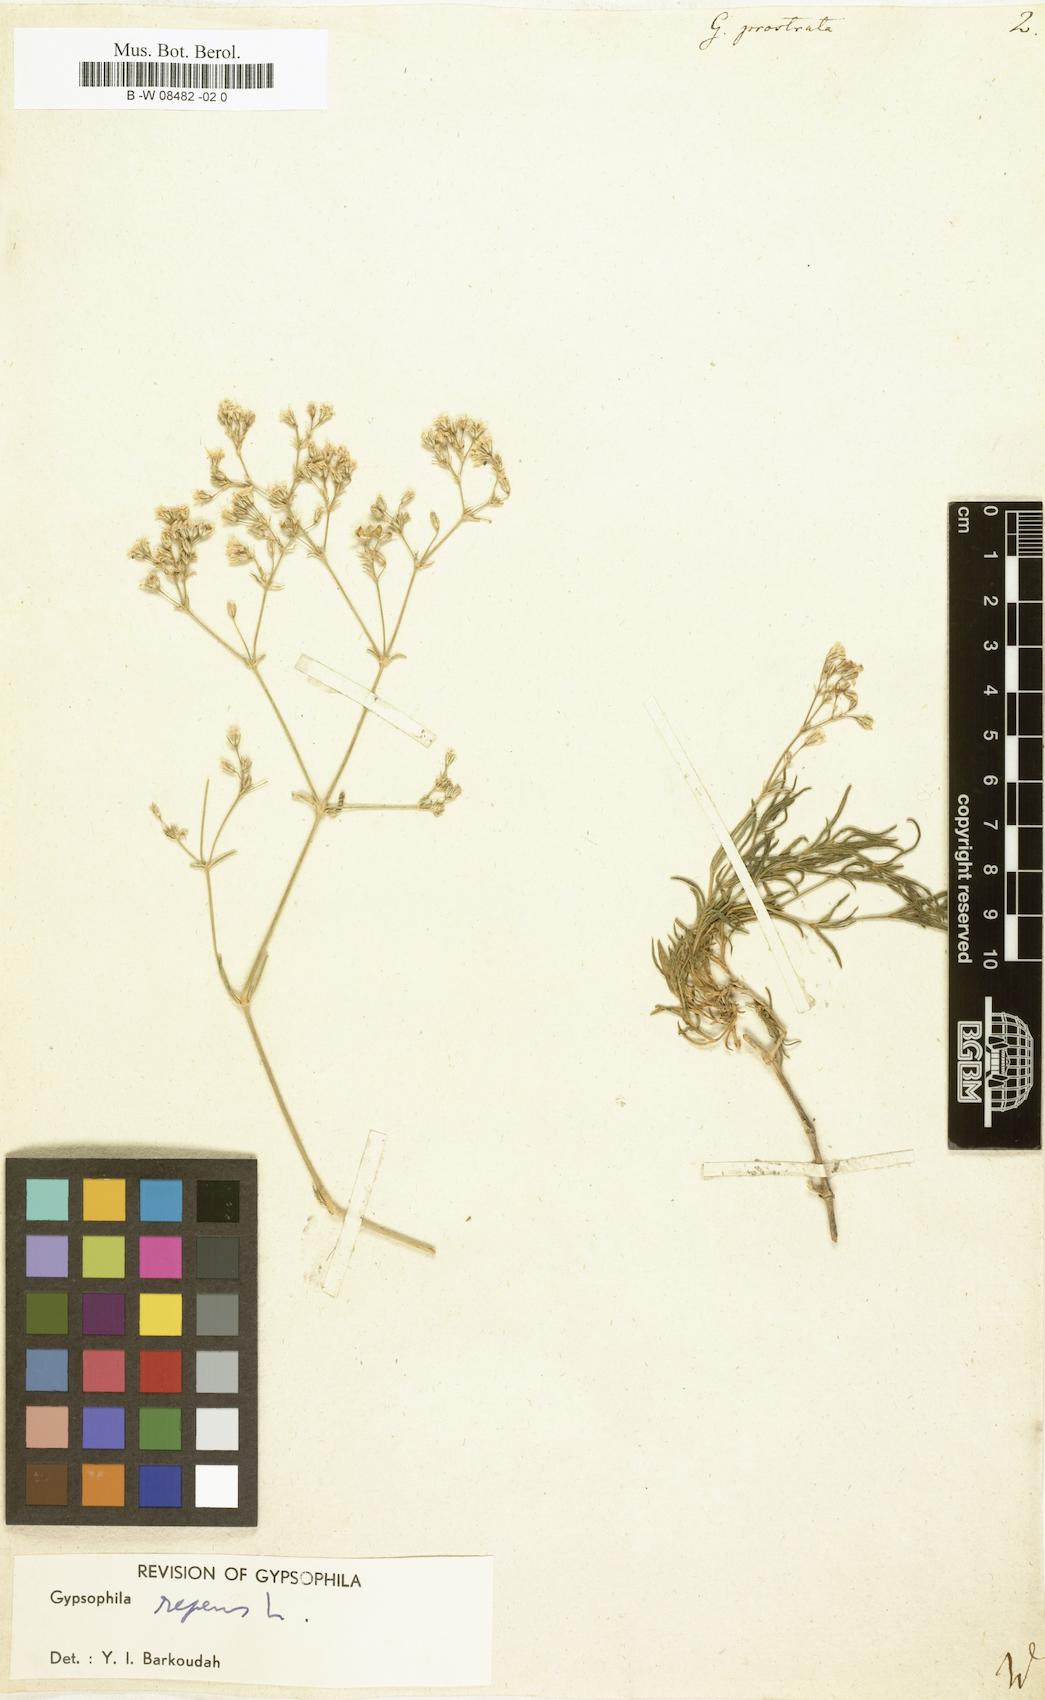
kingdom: Plantae
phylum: Tracheophyta
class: Magnoliopsida
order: Caryophyllales
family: Caryophyllaceae
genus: Gypsophila
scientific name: Gypsophila
